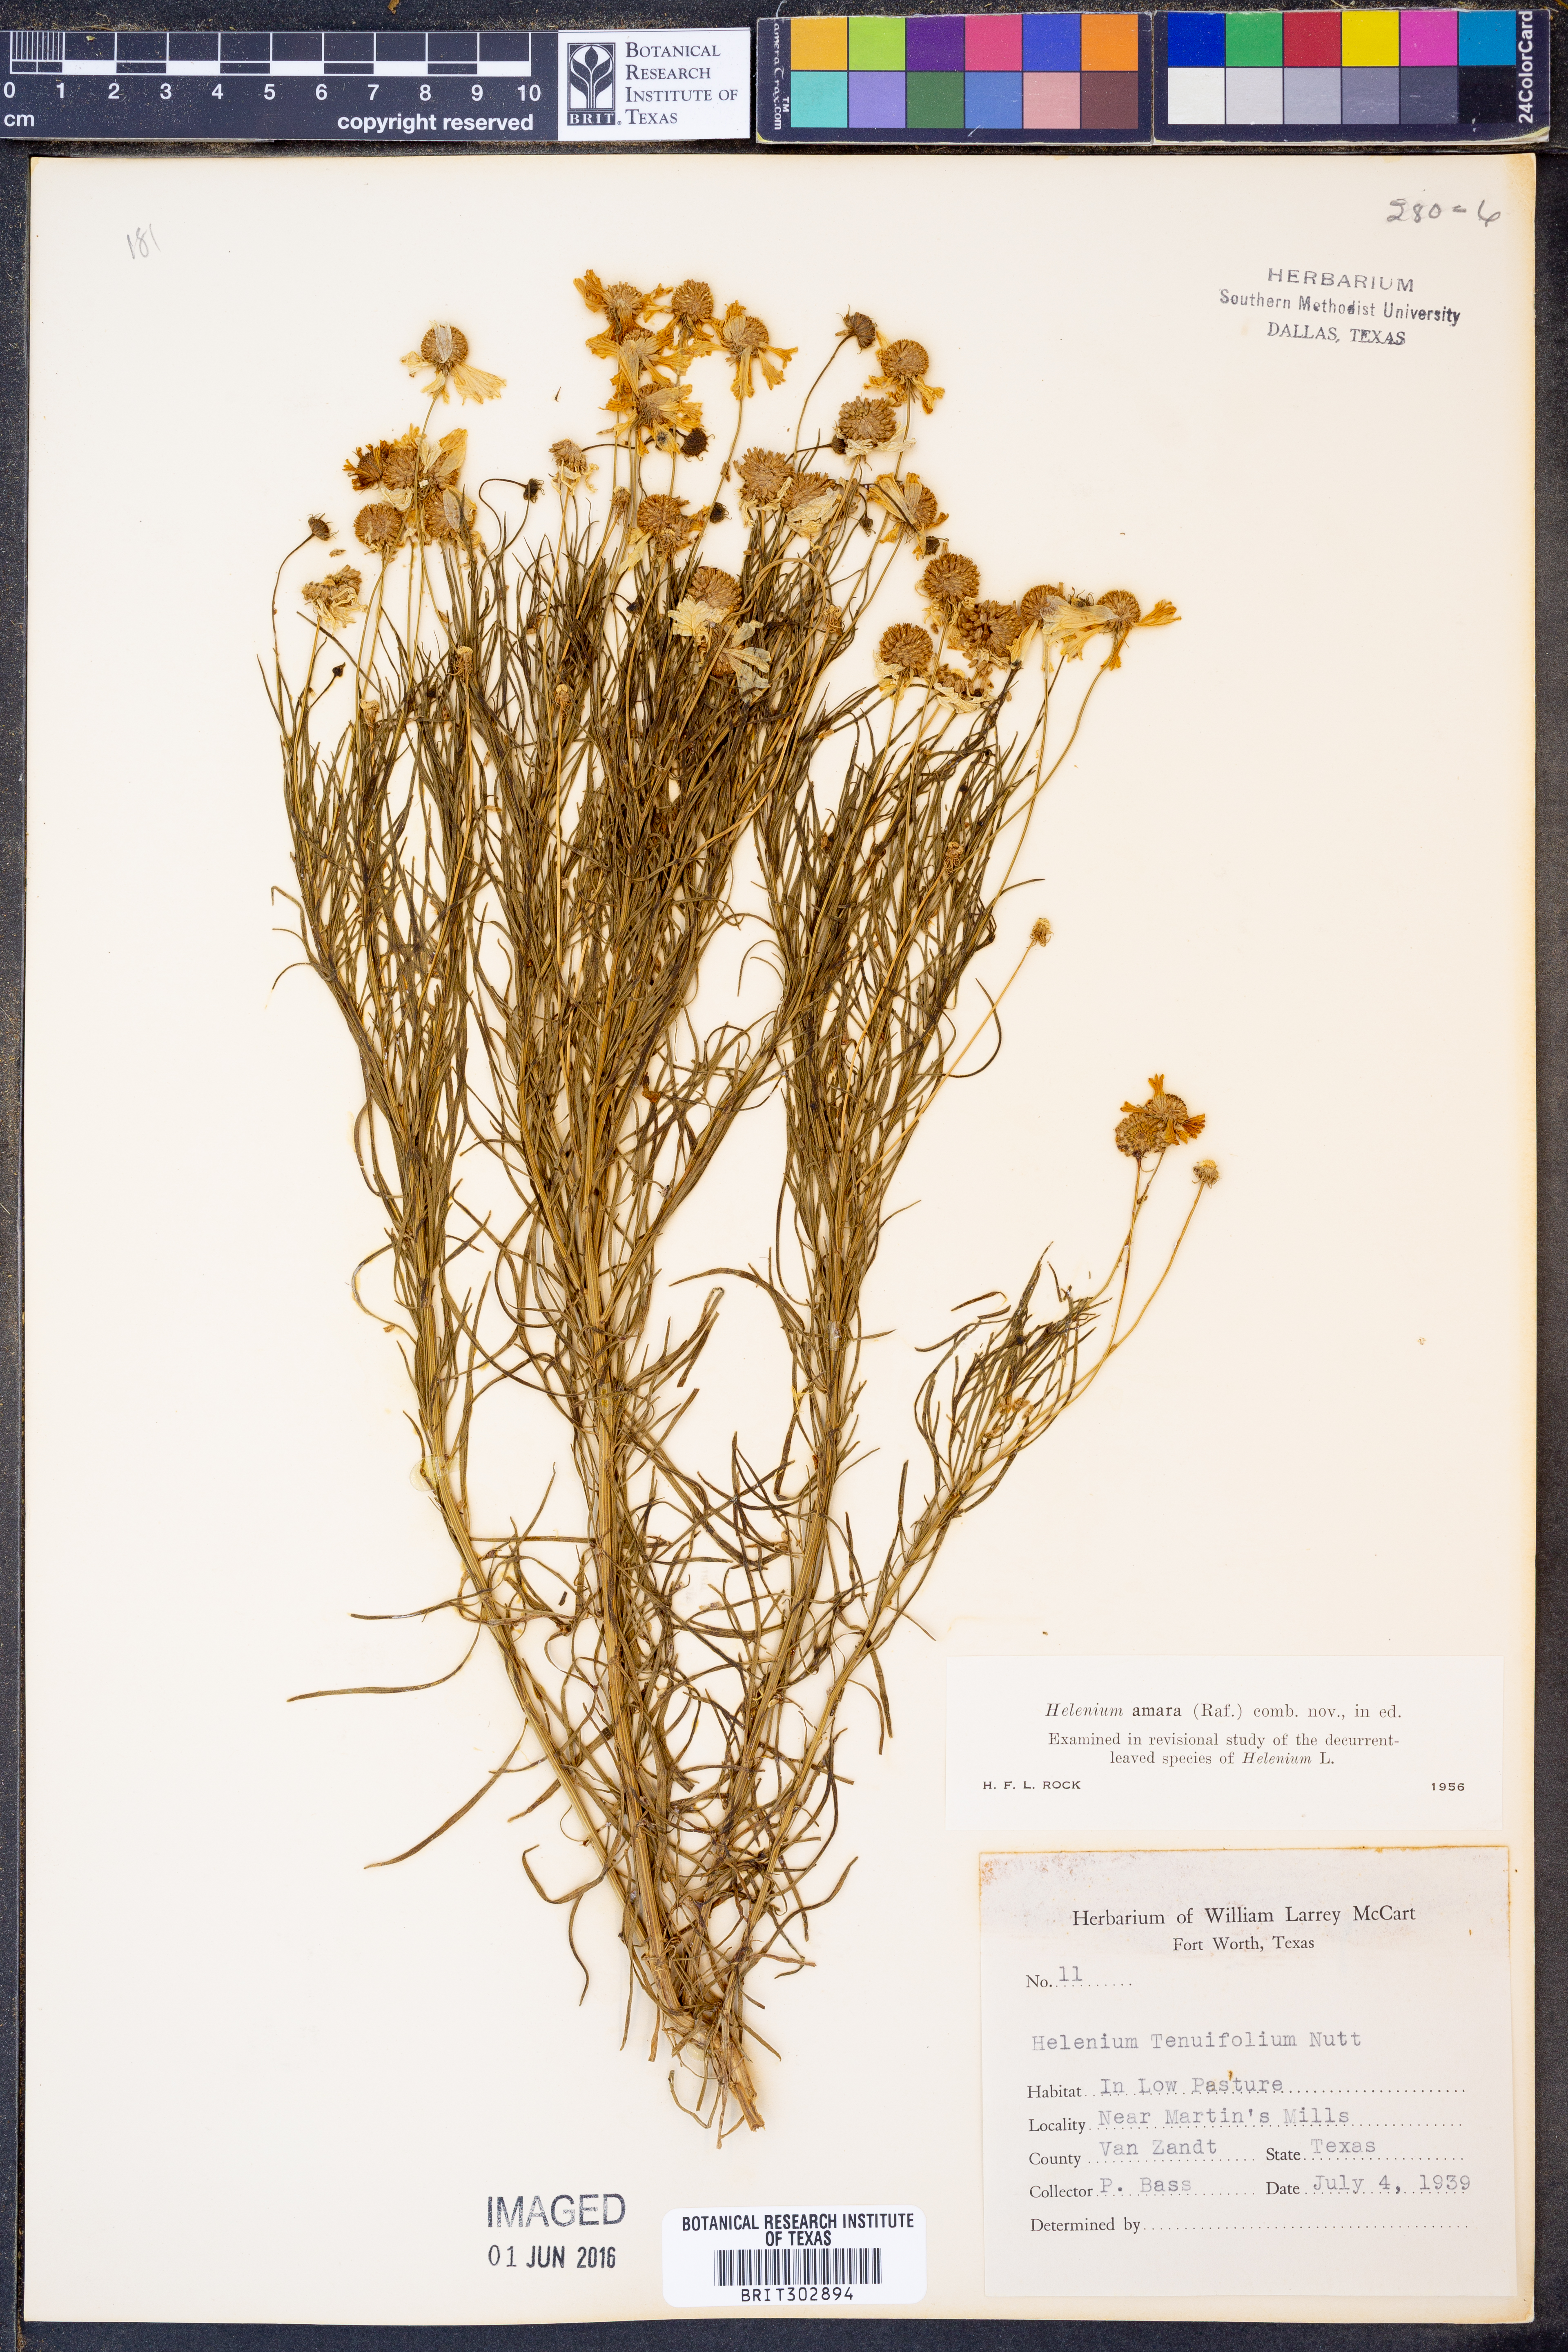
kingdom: Plantae
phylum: Tracheophyta
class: Magnoliopsida
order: Asterales
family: Asteraceae
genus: Helenium
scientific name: Helenium amarum
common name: Bitter sneezeweed
